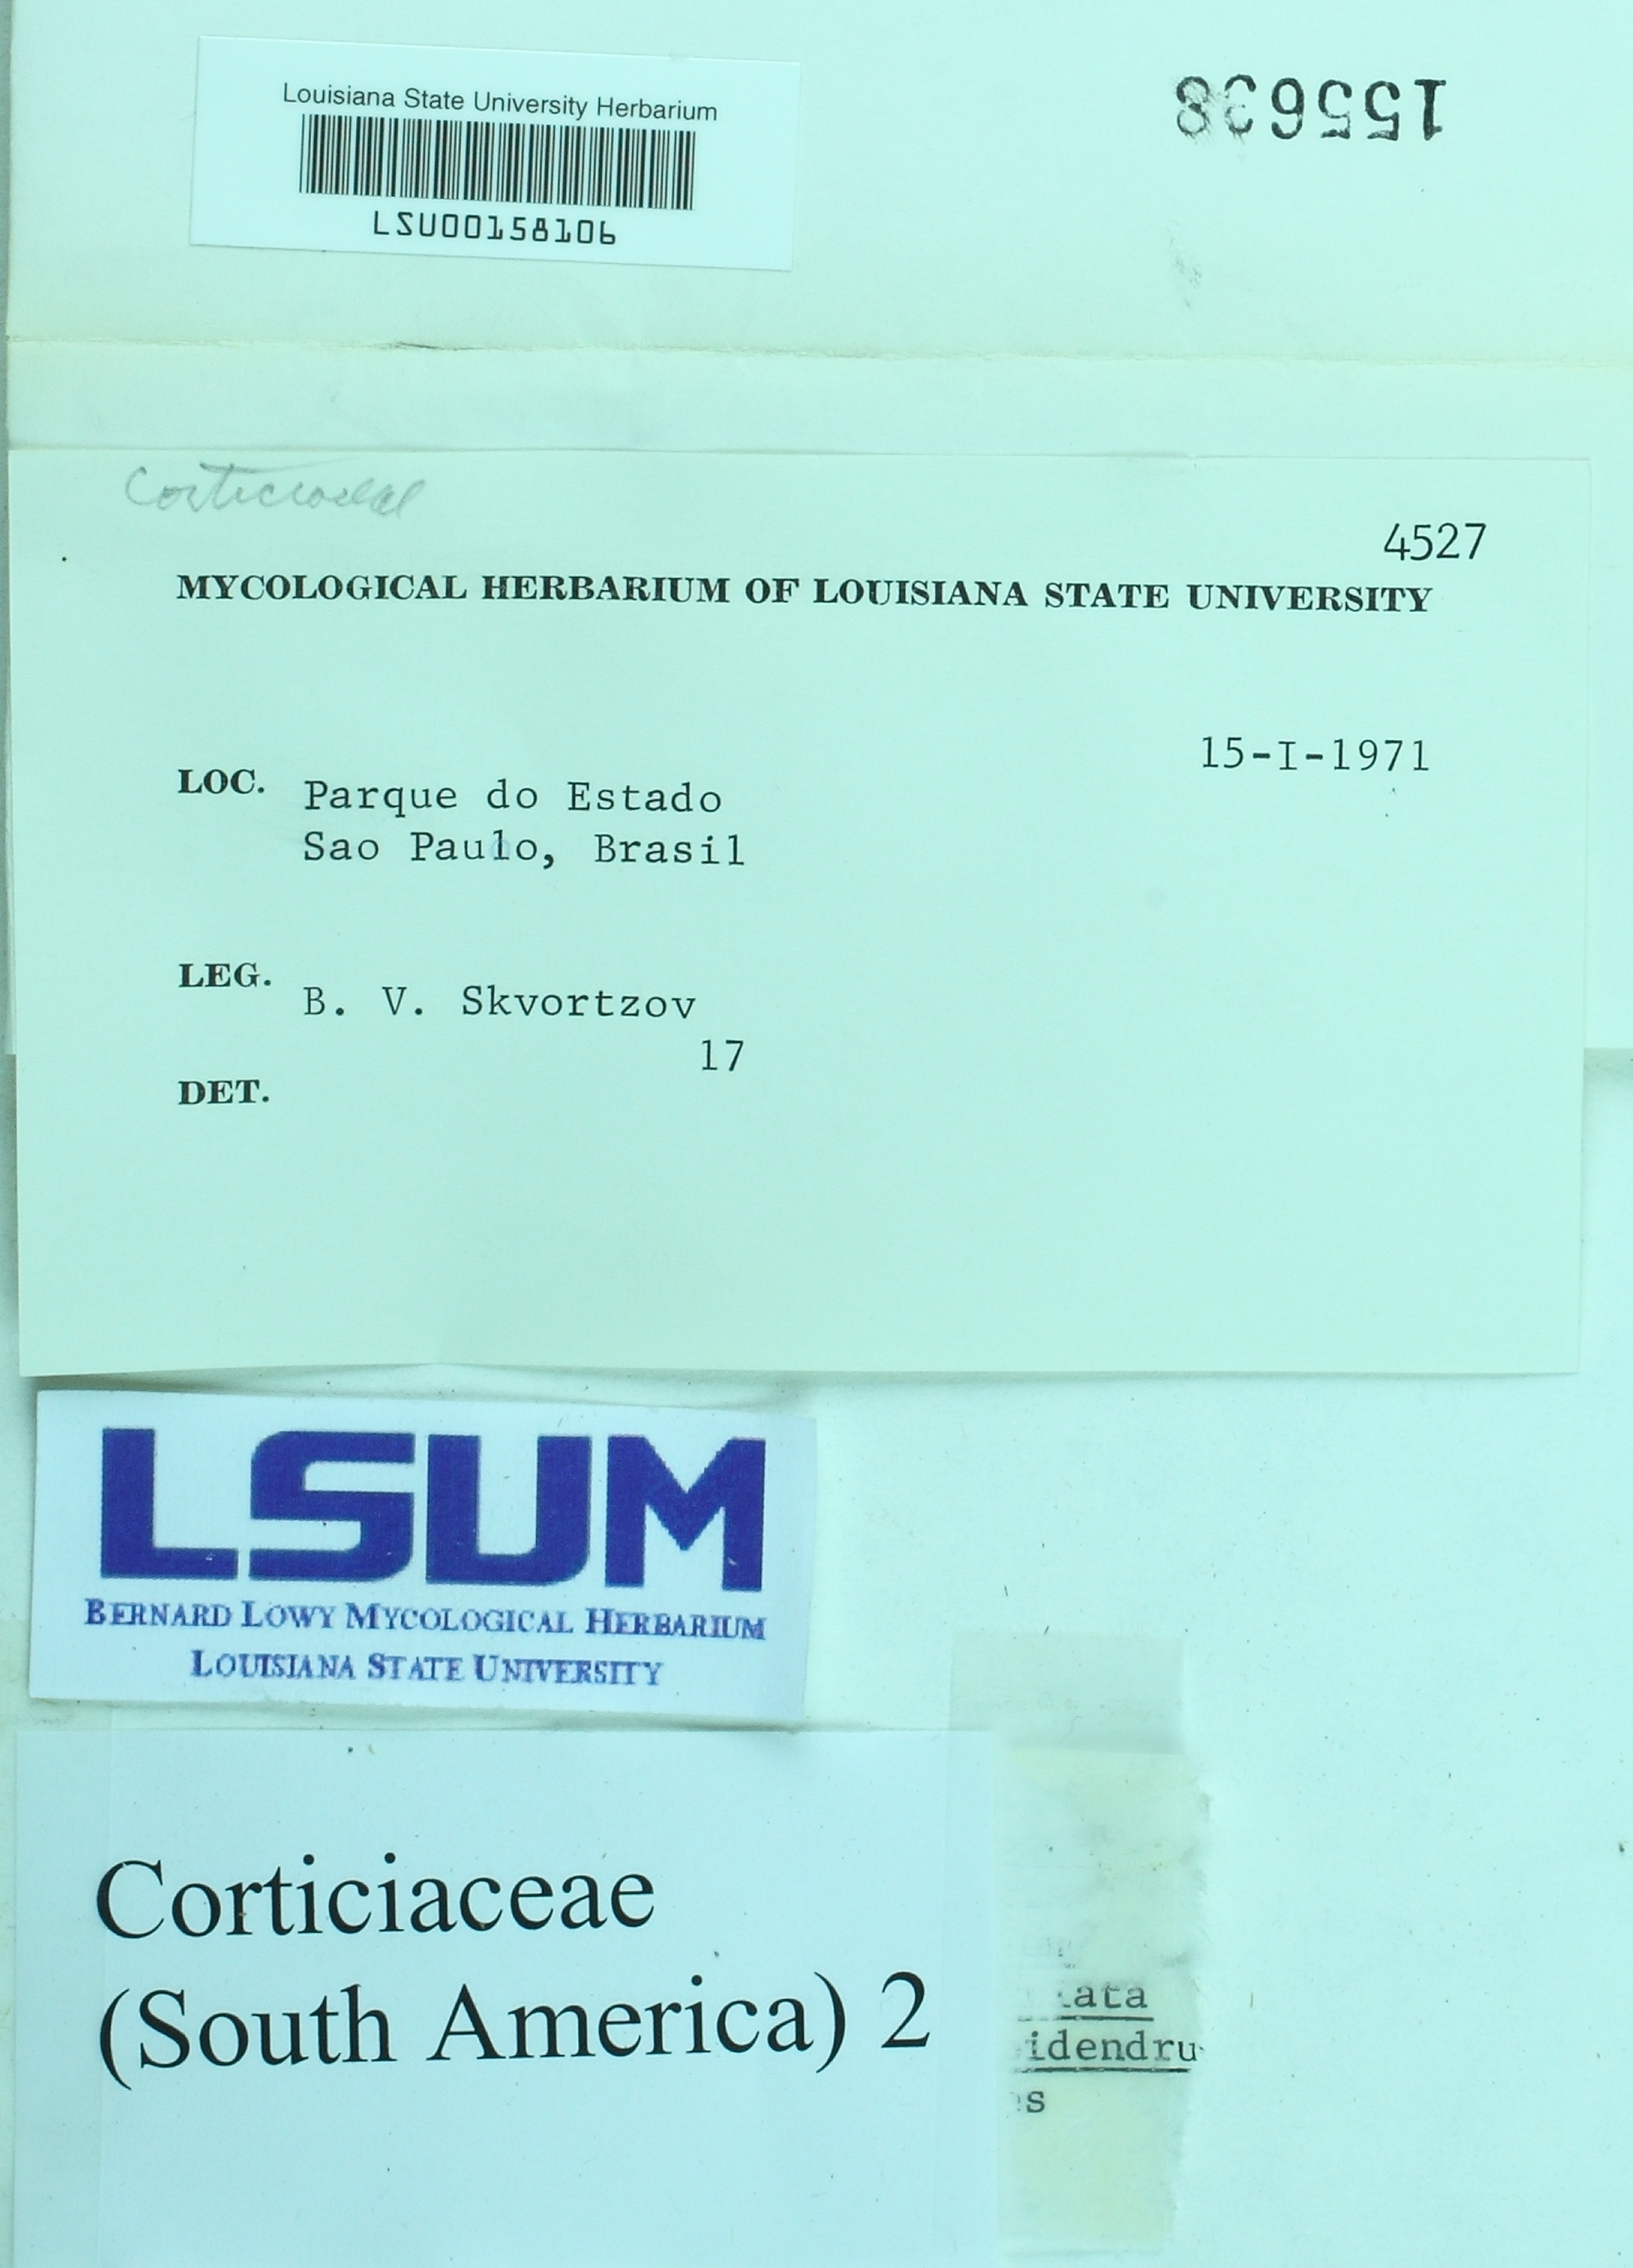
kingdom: Fungi
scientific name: Fungi
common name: Fungi
